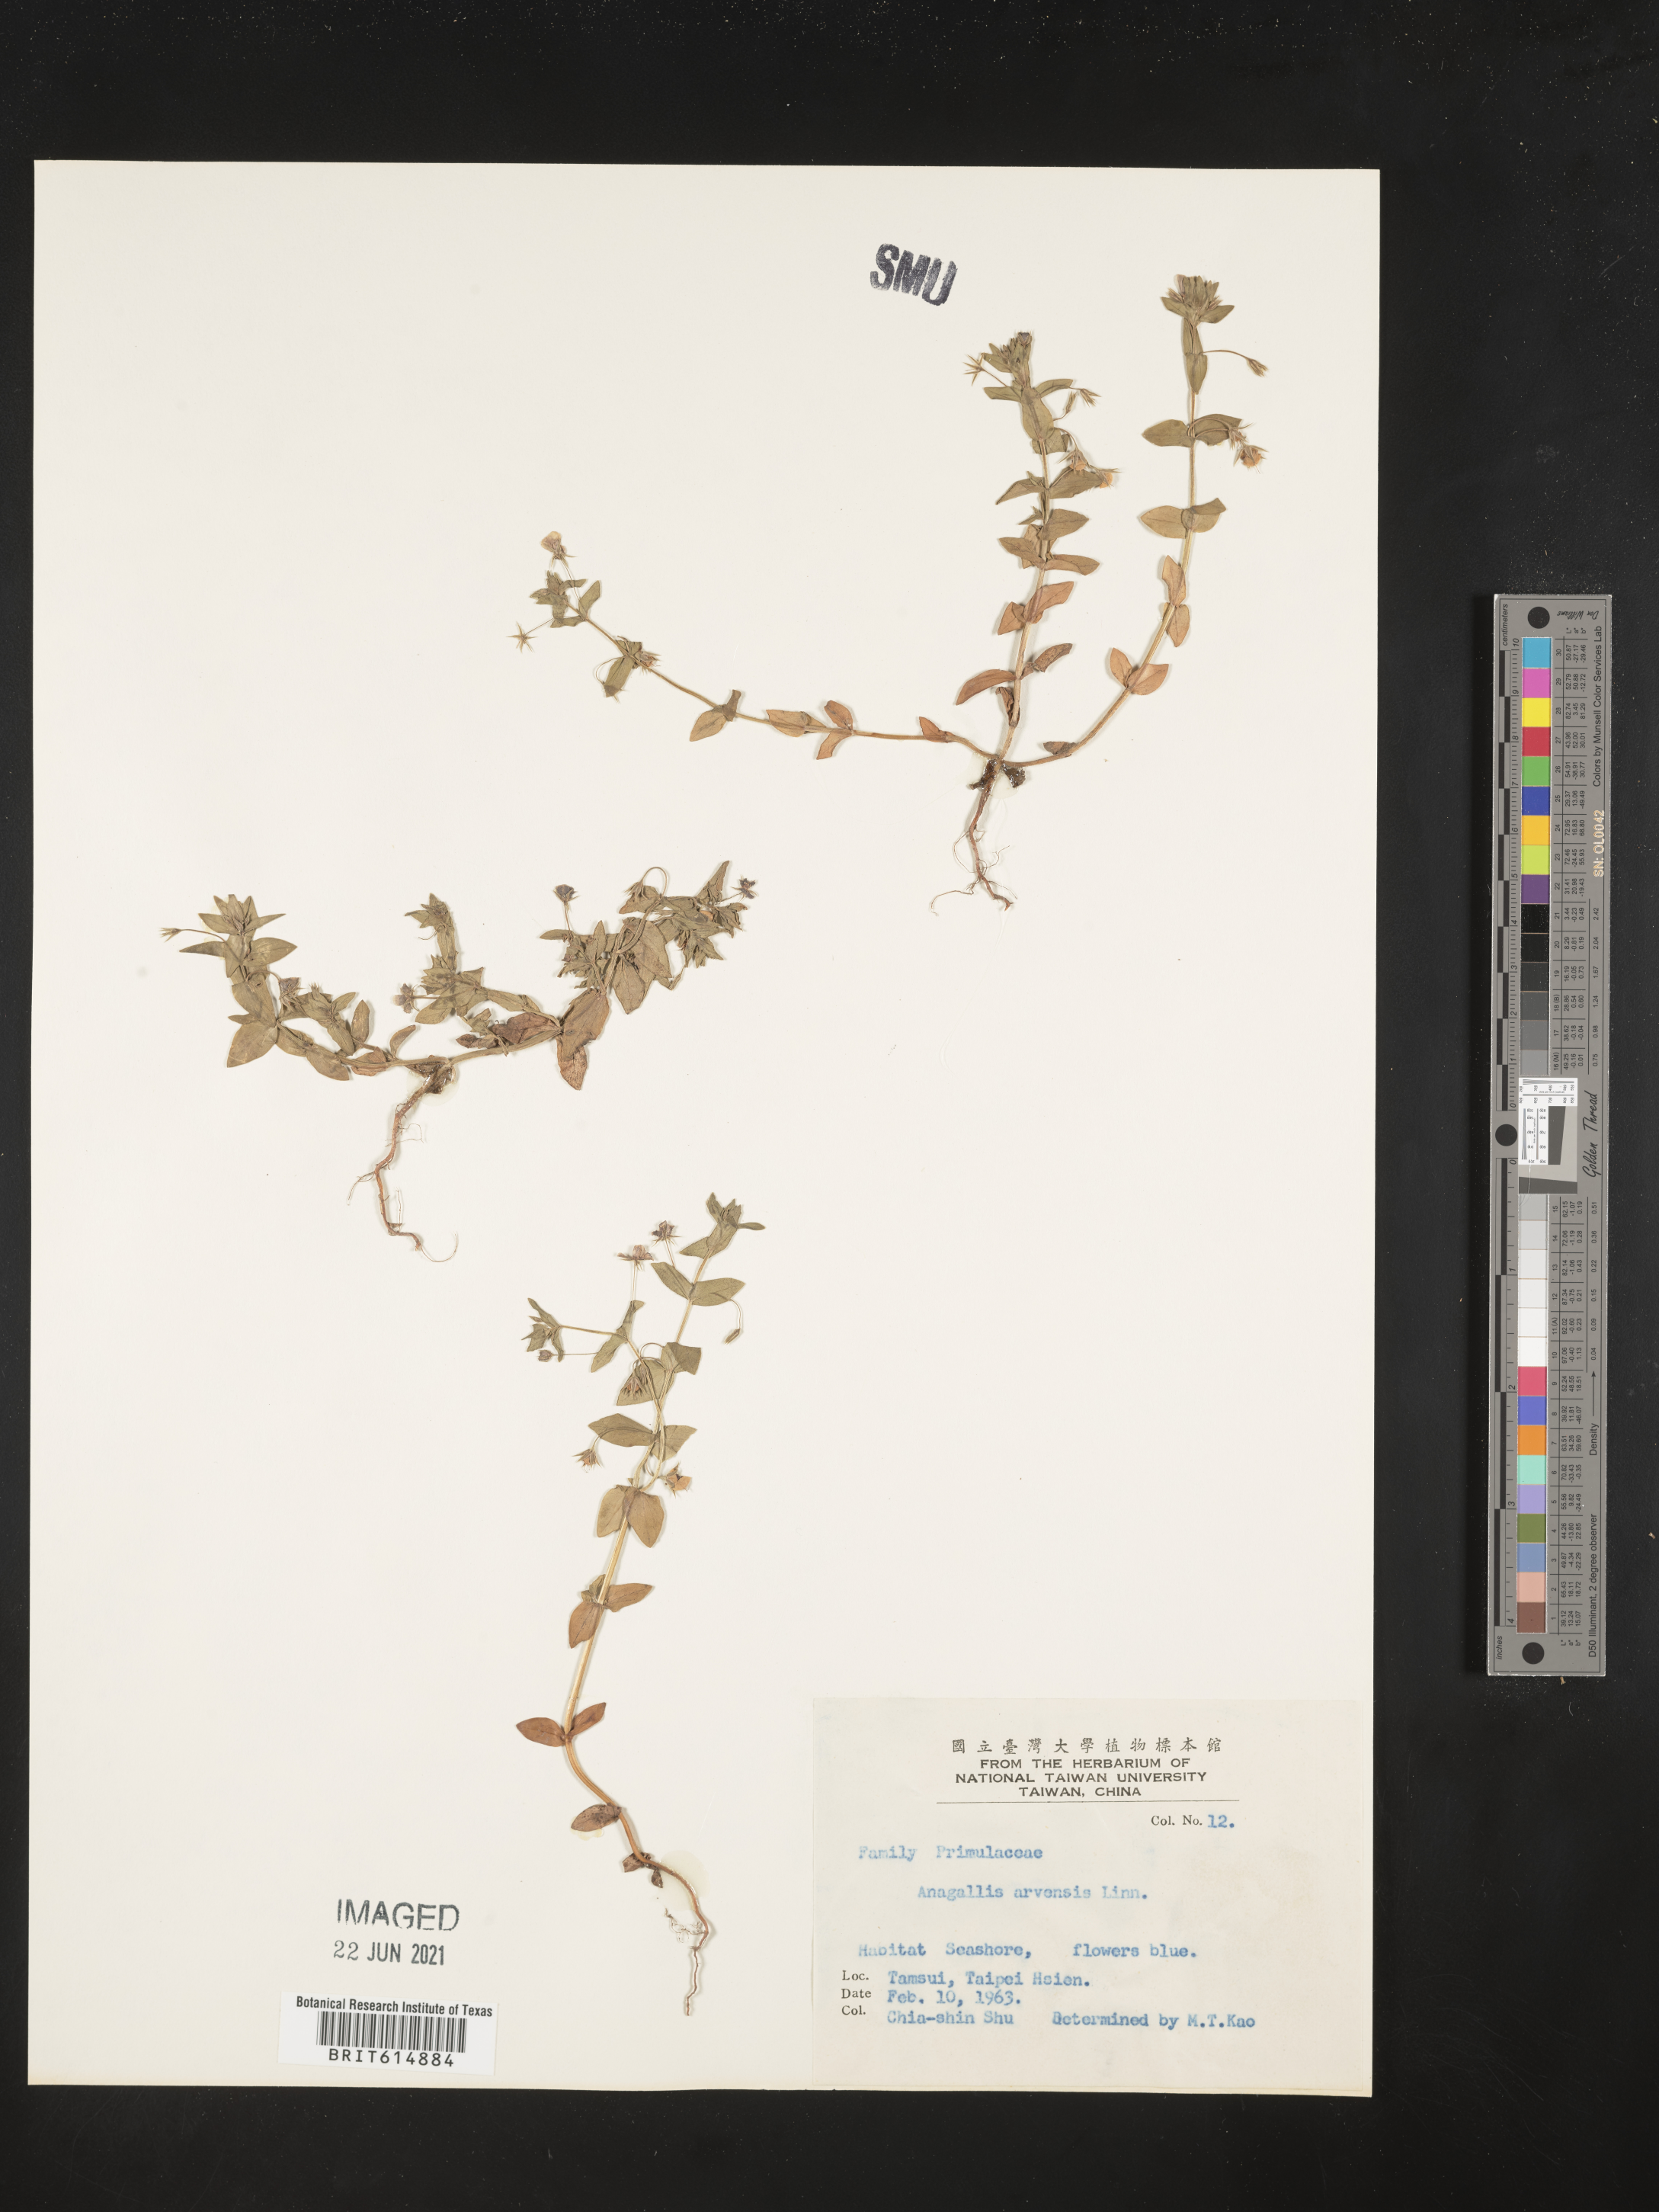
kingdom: Plantae
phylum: Tracheophyta
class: Magnoliopsida
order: Ericales
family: Primulaceae
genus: Lysimachia
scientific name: Lysimachia arvensis
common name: Scarlet pimpernel
